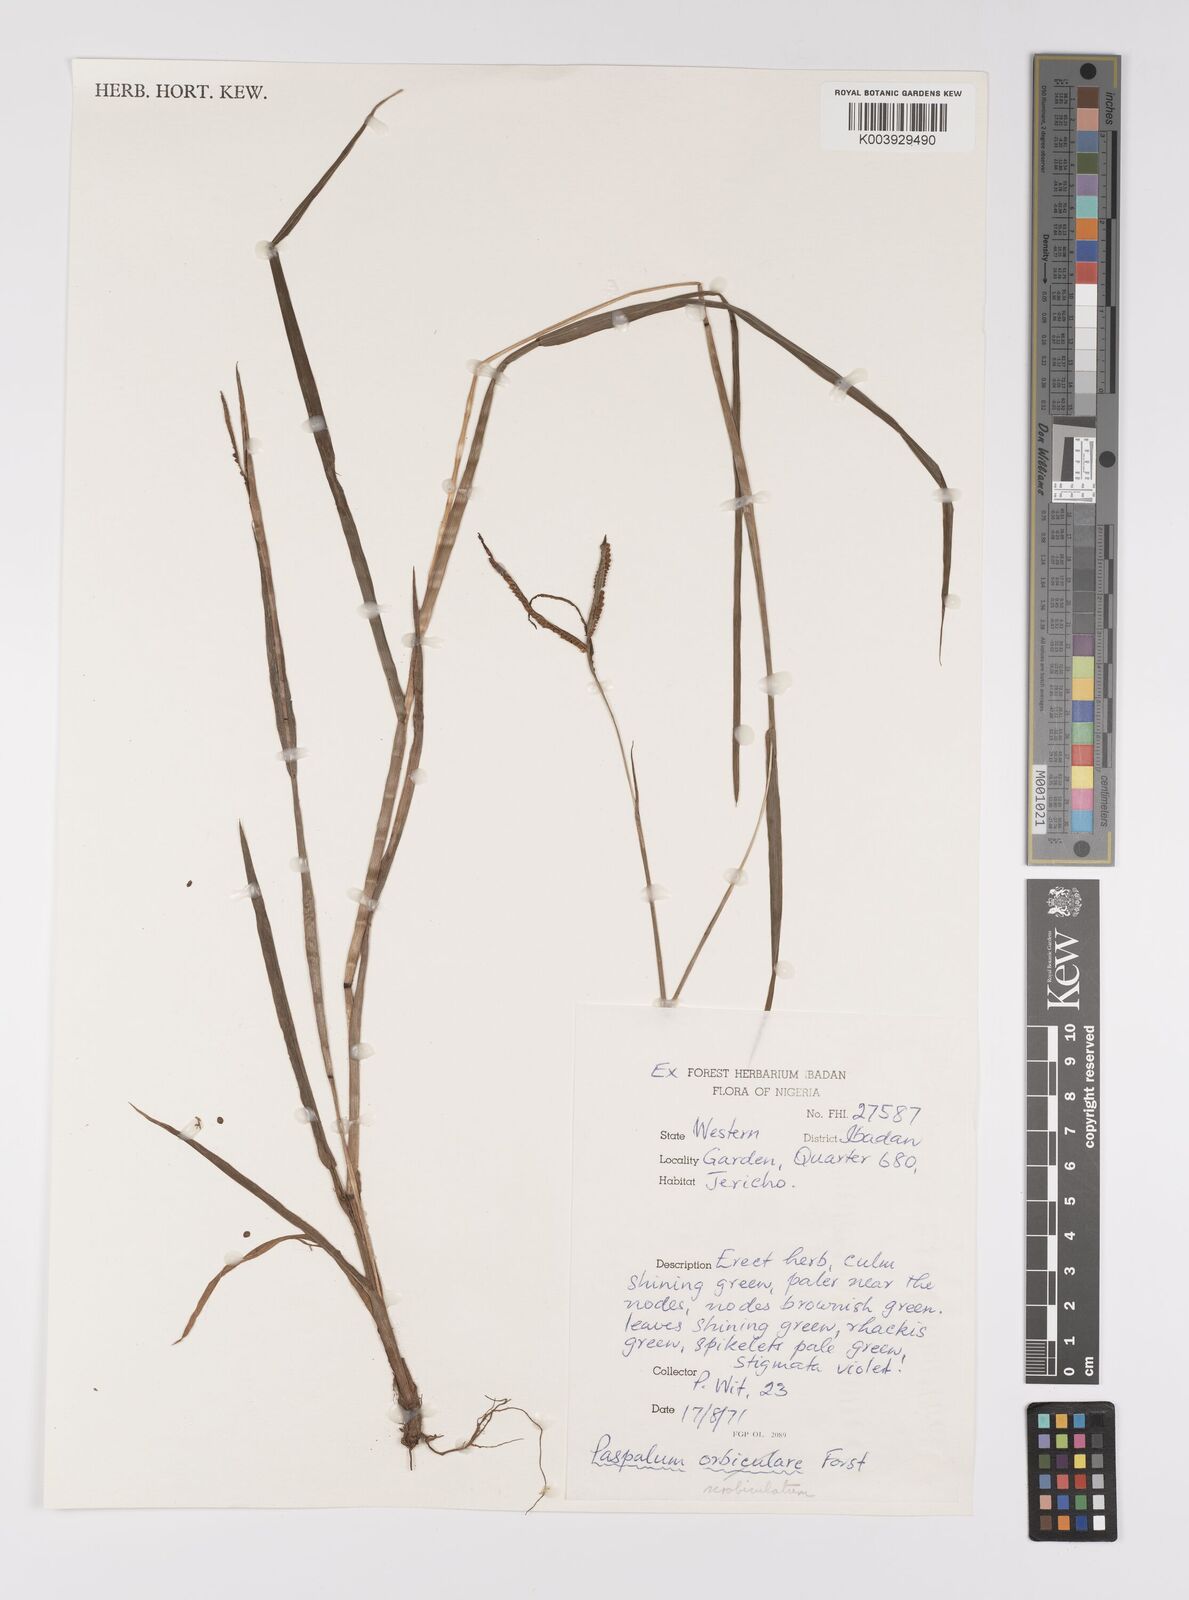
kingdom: Plantae
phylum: Tracheophyta
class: Liliopsida
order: Poales
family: Poaceae
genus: Paspalum
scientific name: Paspalum scrobiculatum
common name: Kodo millet
